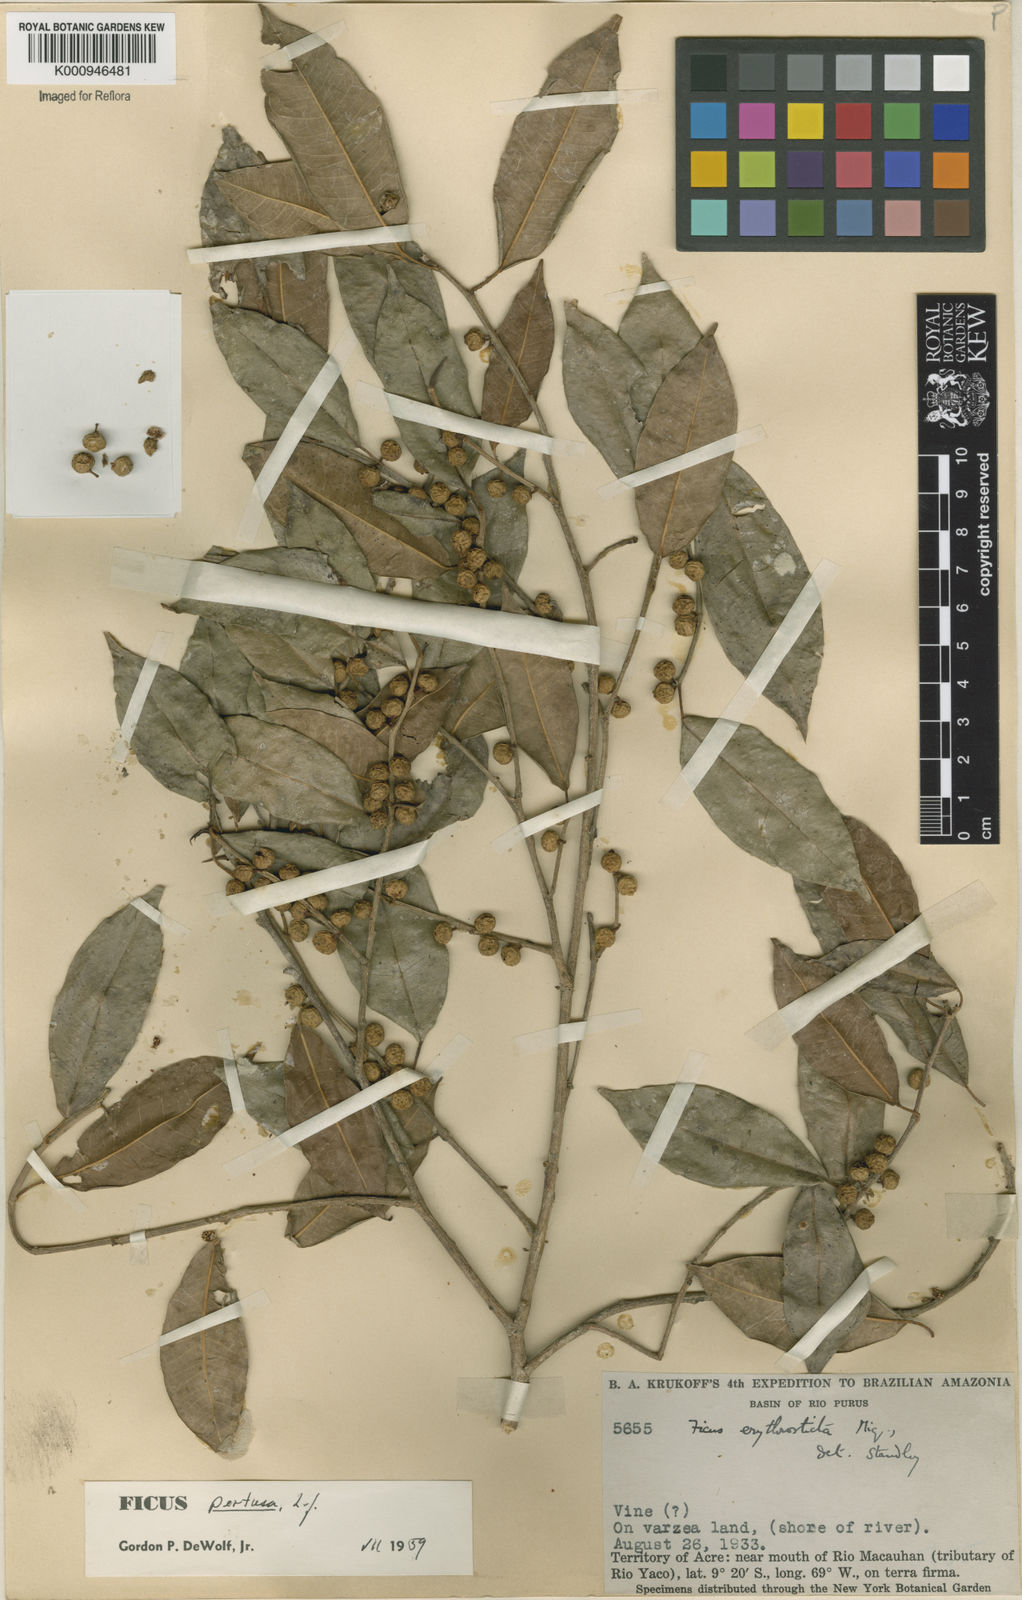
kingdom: Plantae
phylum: Tracheophyta
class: Magnoliopsida
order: Rosales
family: Moraceae
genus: Ficus
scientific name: Ficus pertusa
